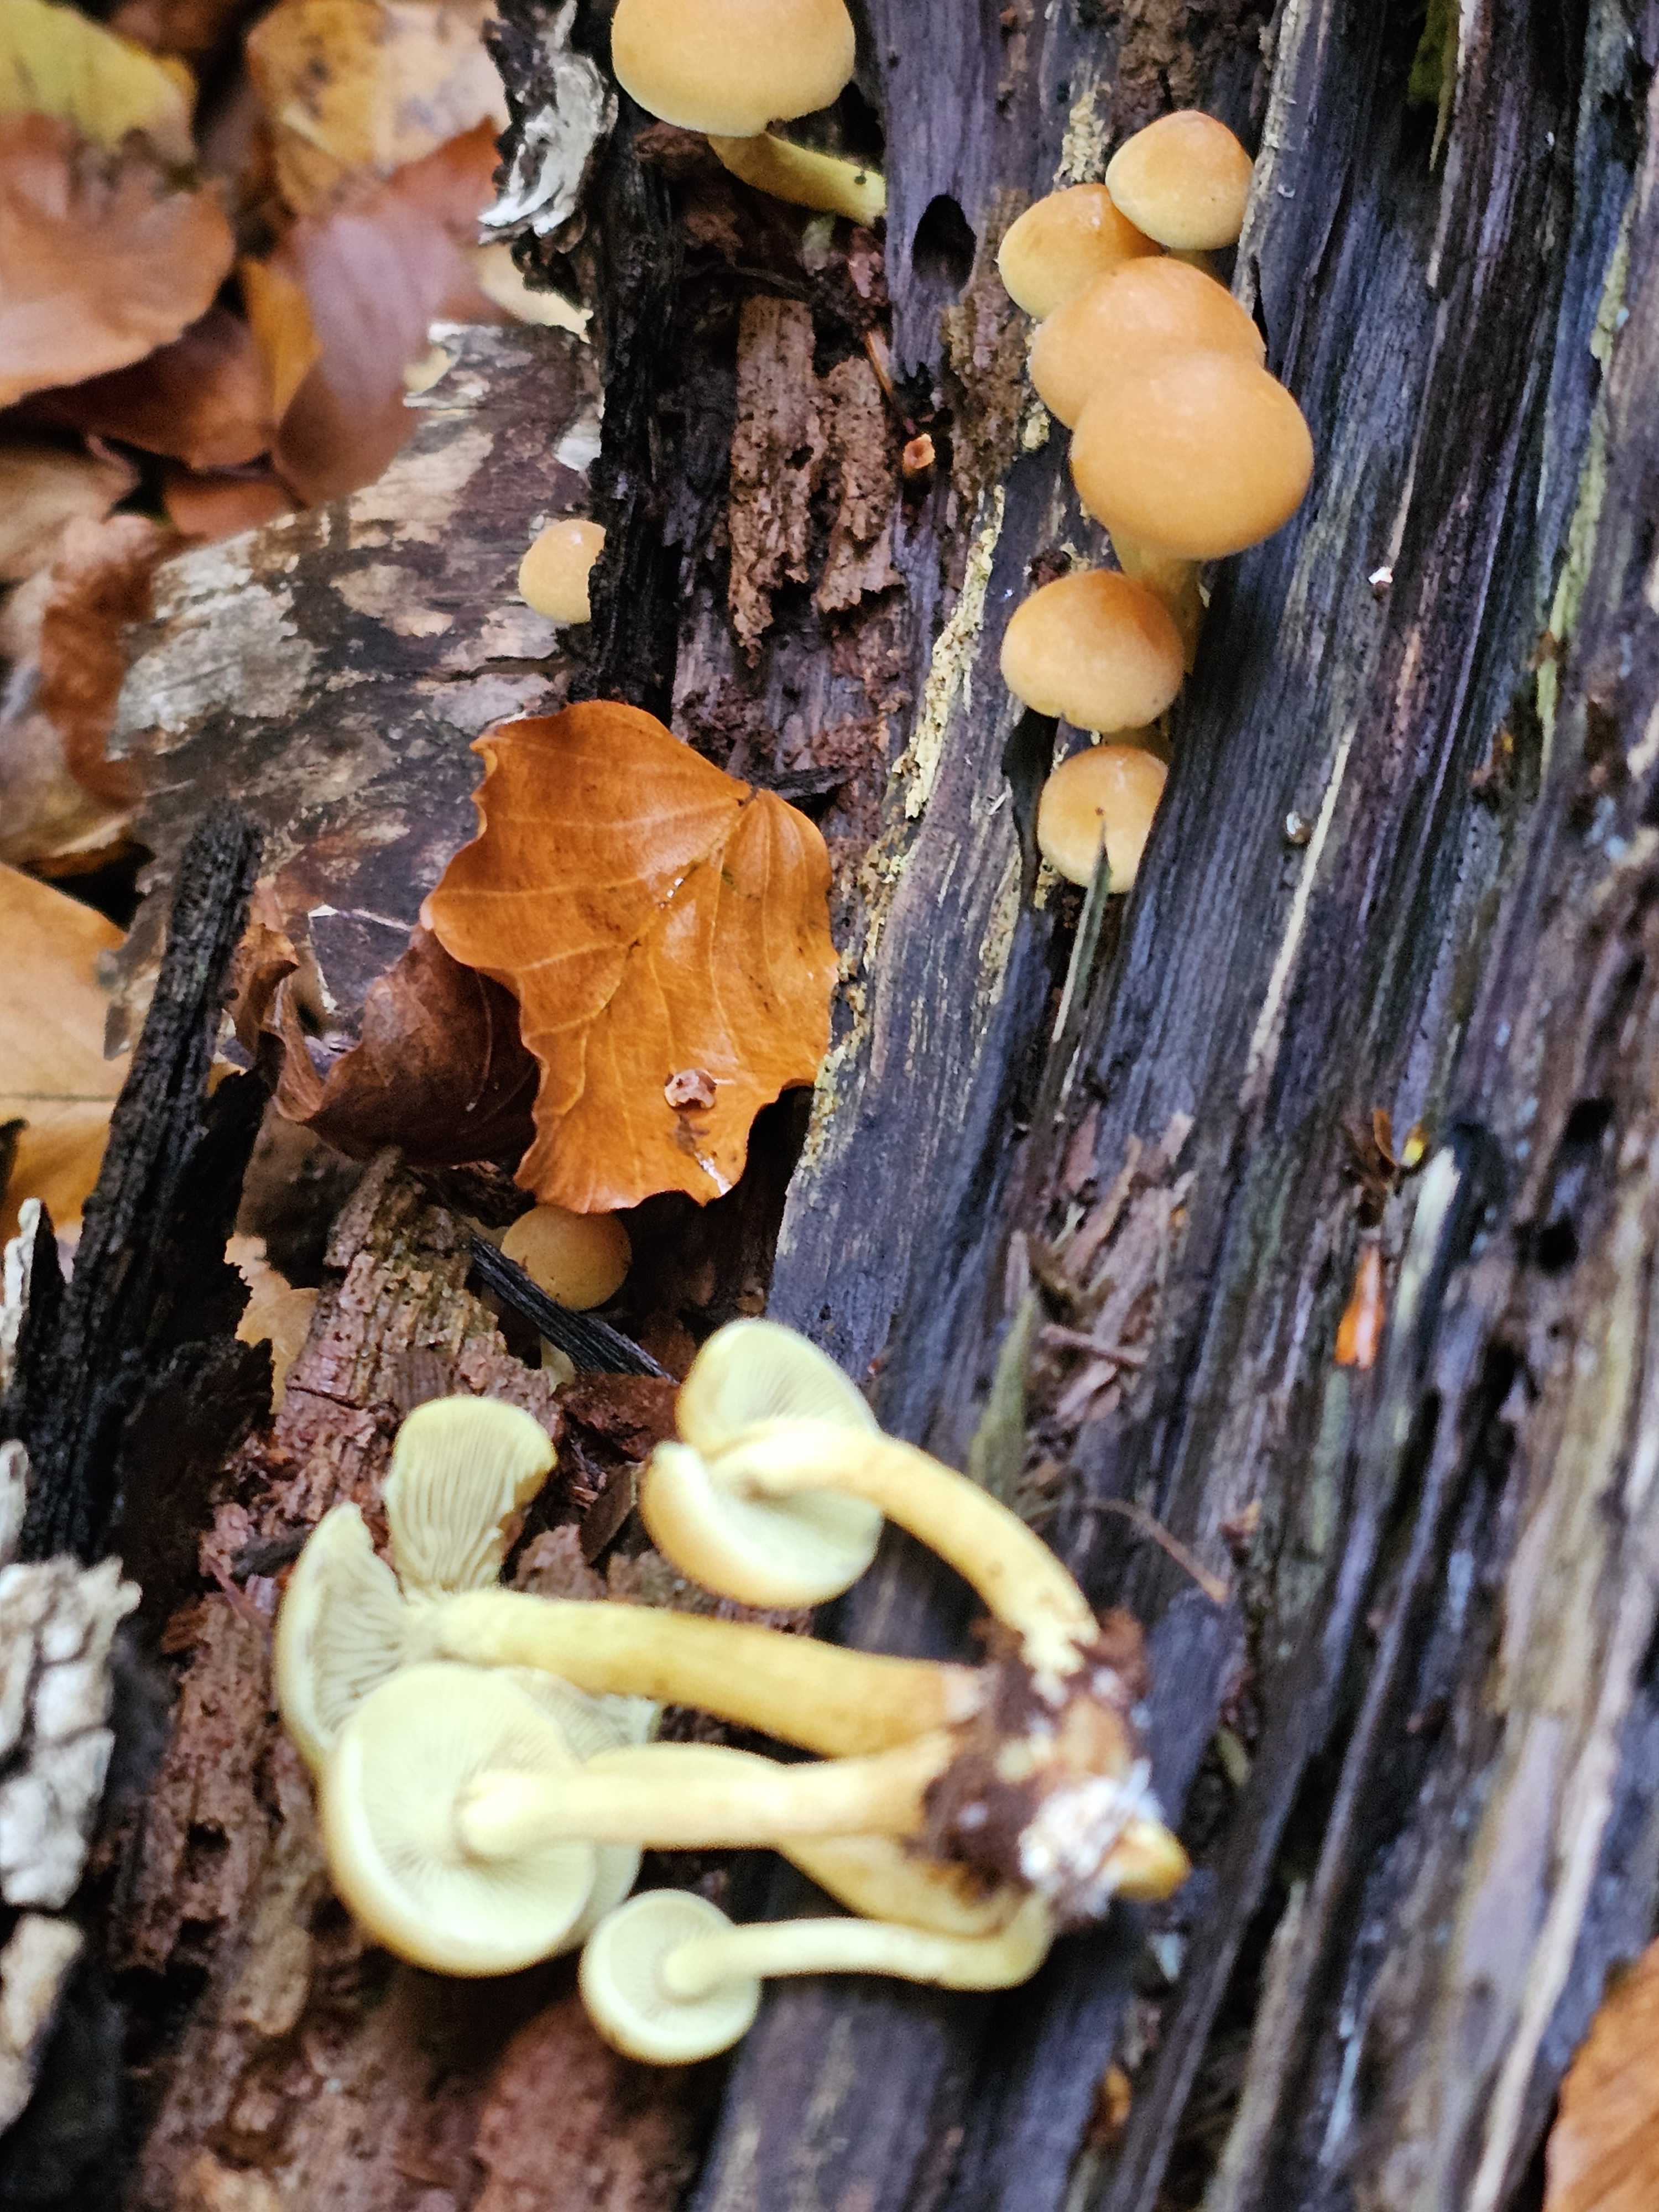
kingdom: Fungi
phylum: Basidiomycota
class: Agaricomycetes
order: Agaricales
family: Strophariaceae
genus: Hypholoma
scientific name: Hypholoma fasciculare
